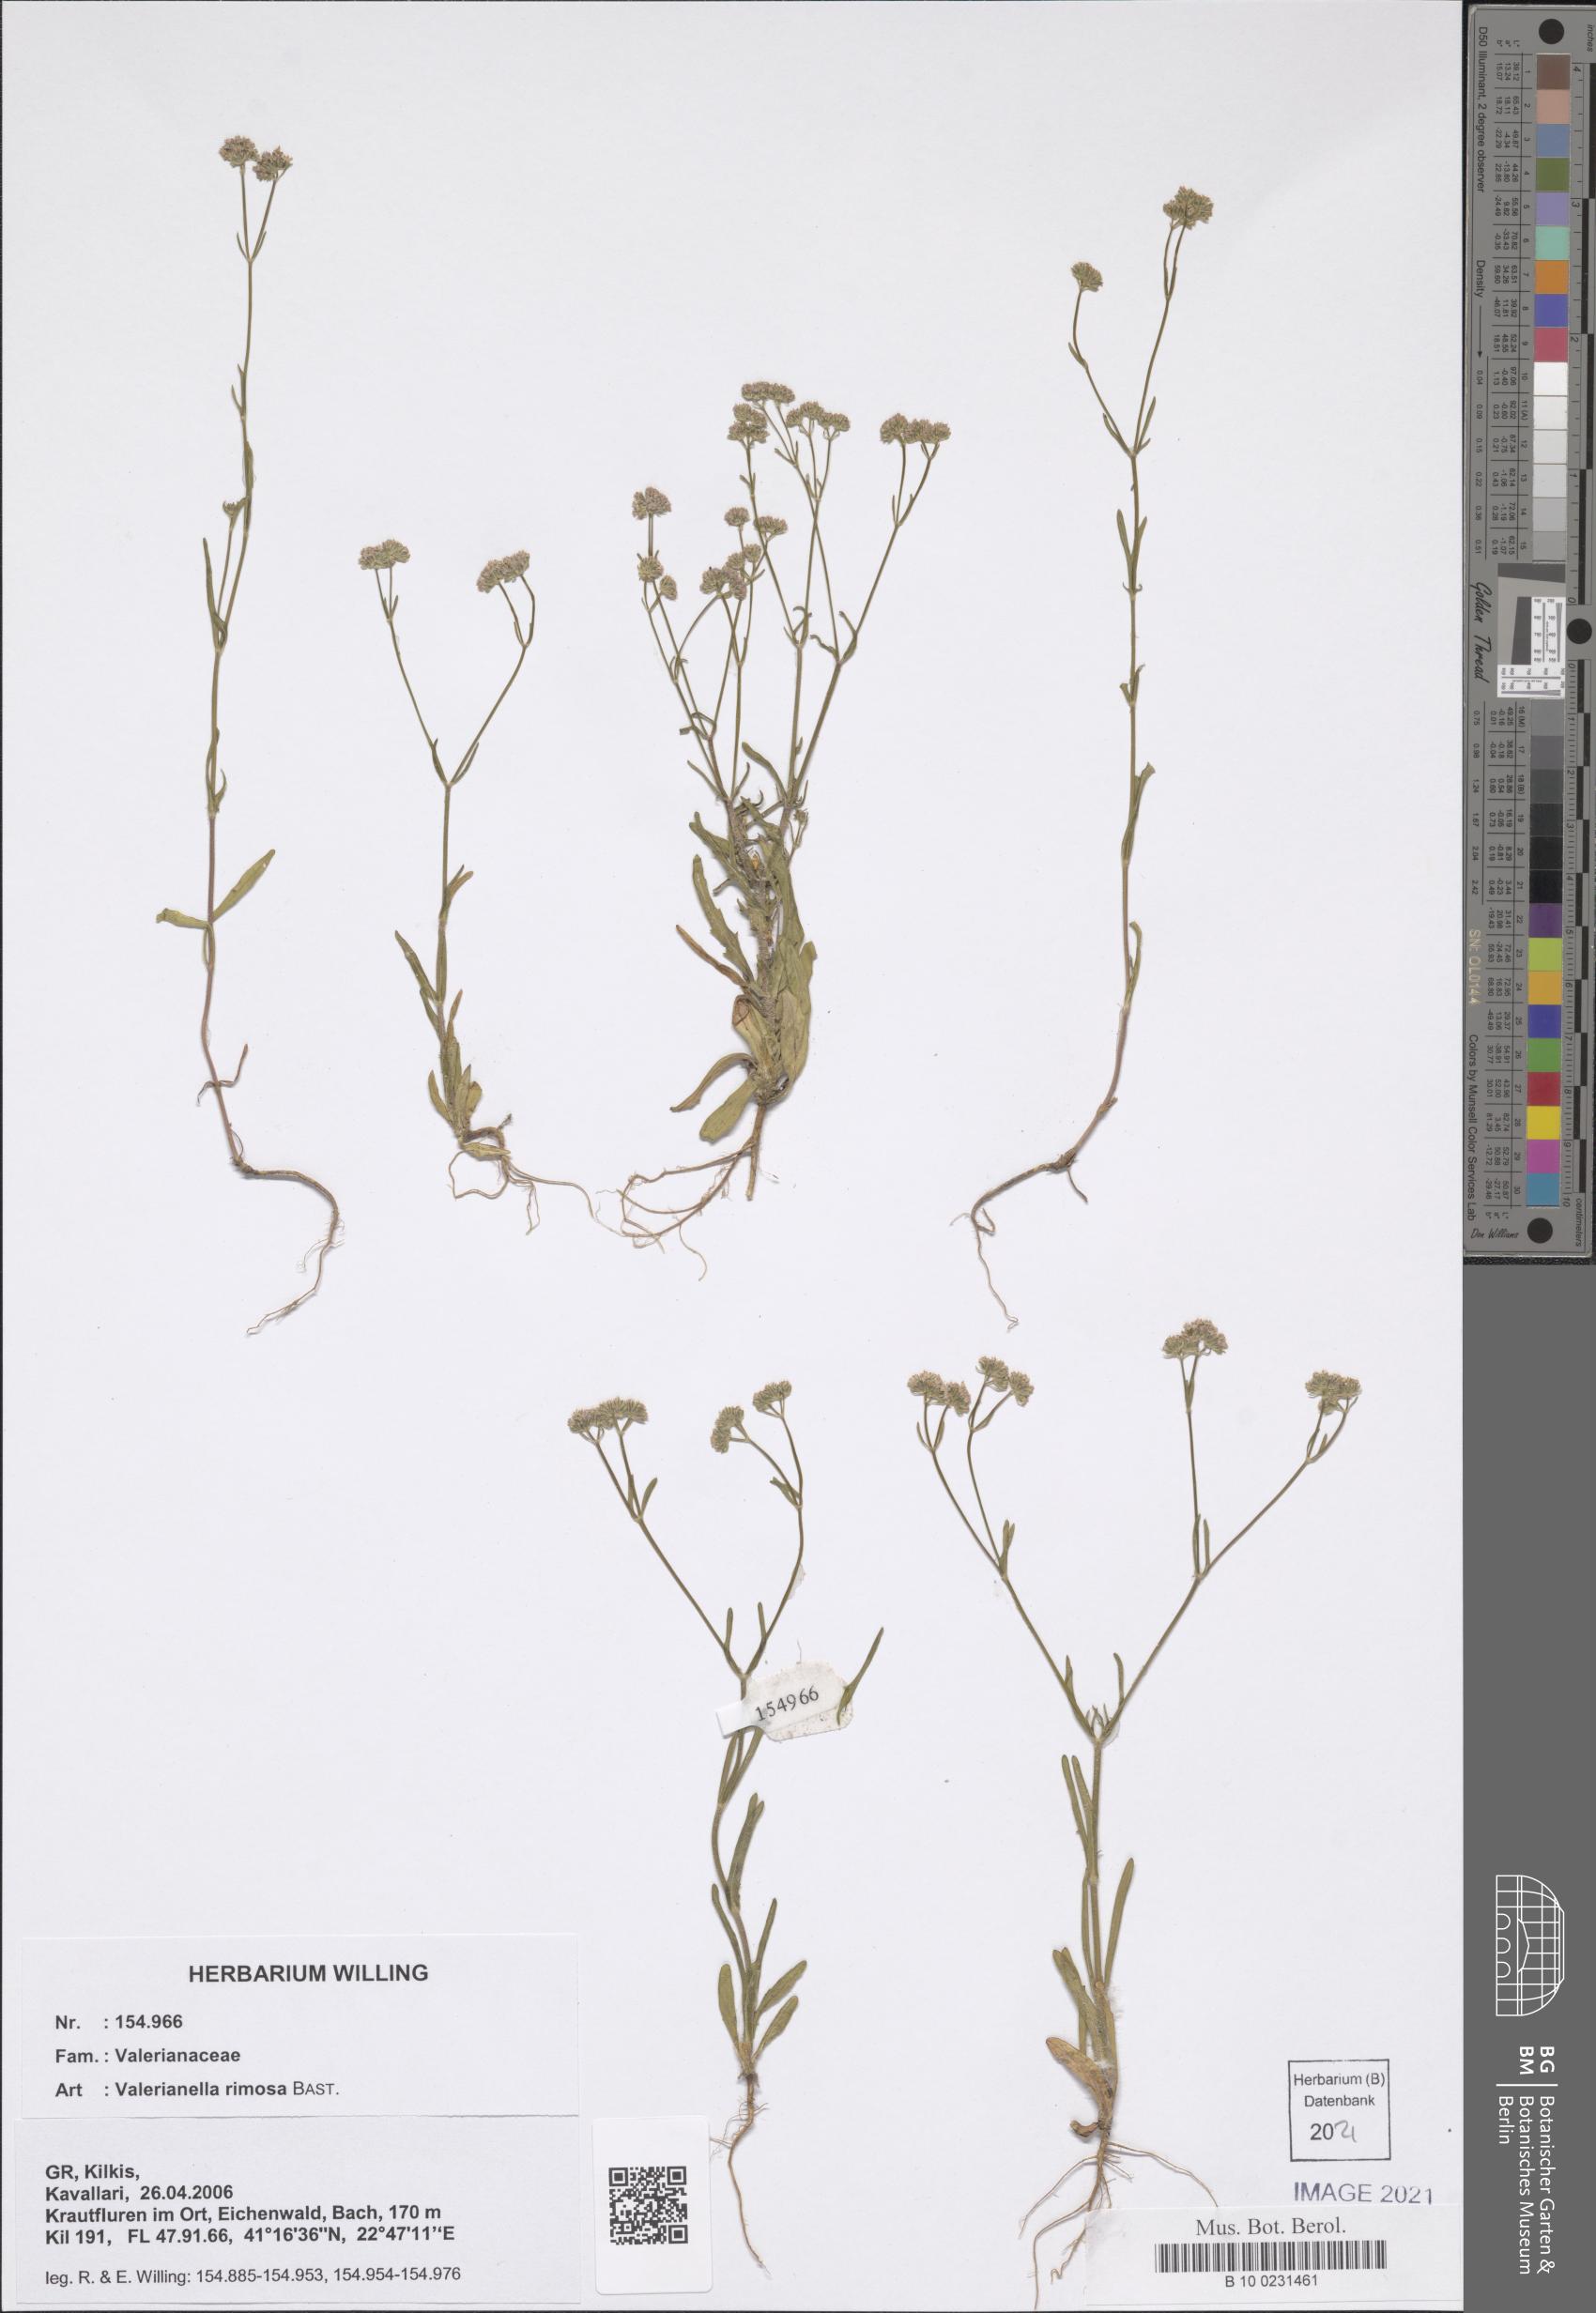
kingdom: Plantae
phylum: Tracheophyta
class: Magnoliopsida
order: Dipsacales
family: Caprifoliaceae
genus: Valerianella
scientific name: Valerianella rimosa
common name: Broad-fruited cornsalad
